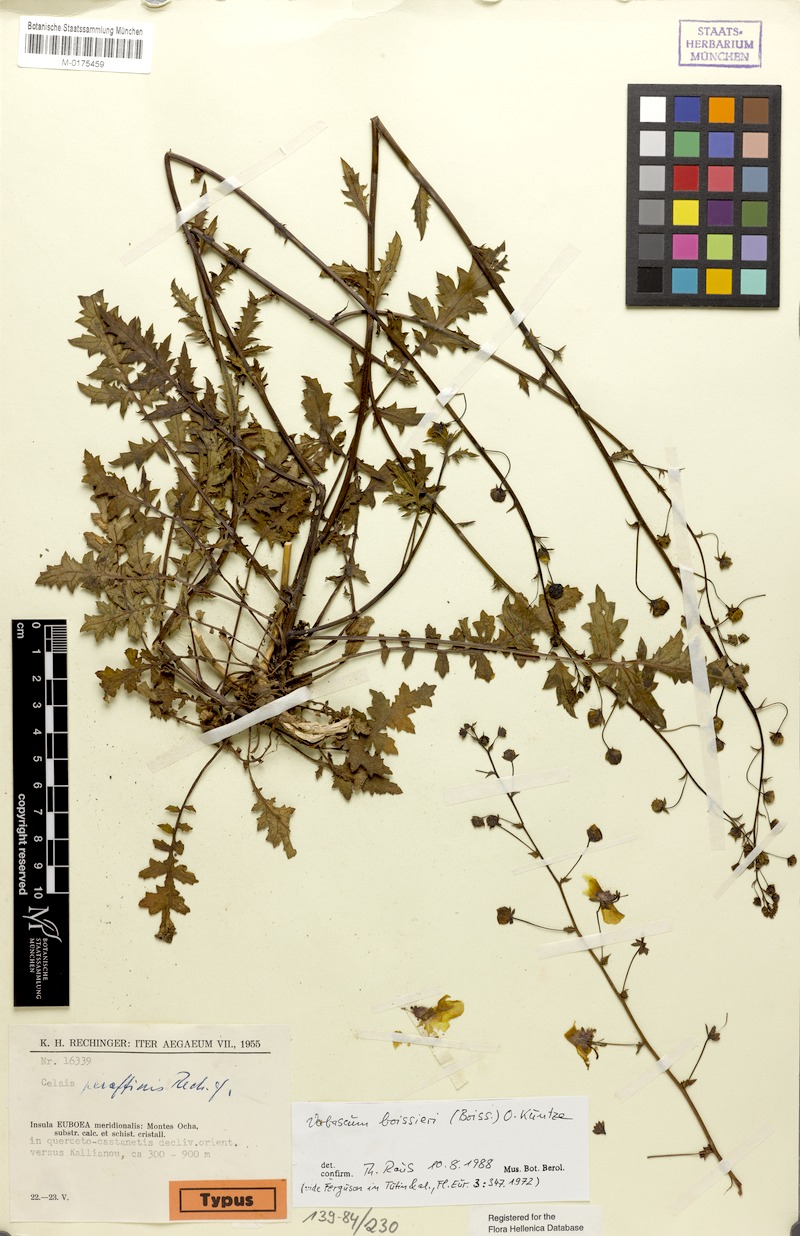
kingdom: Plantae
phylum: Tracheophyta
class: Magnoliopsida
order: Lamiales
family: Scrophulariaceae
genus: Verbascum
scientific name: Verbascum boissieri
